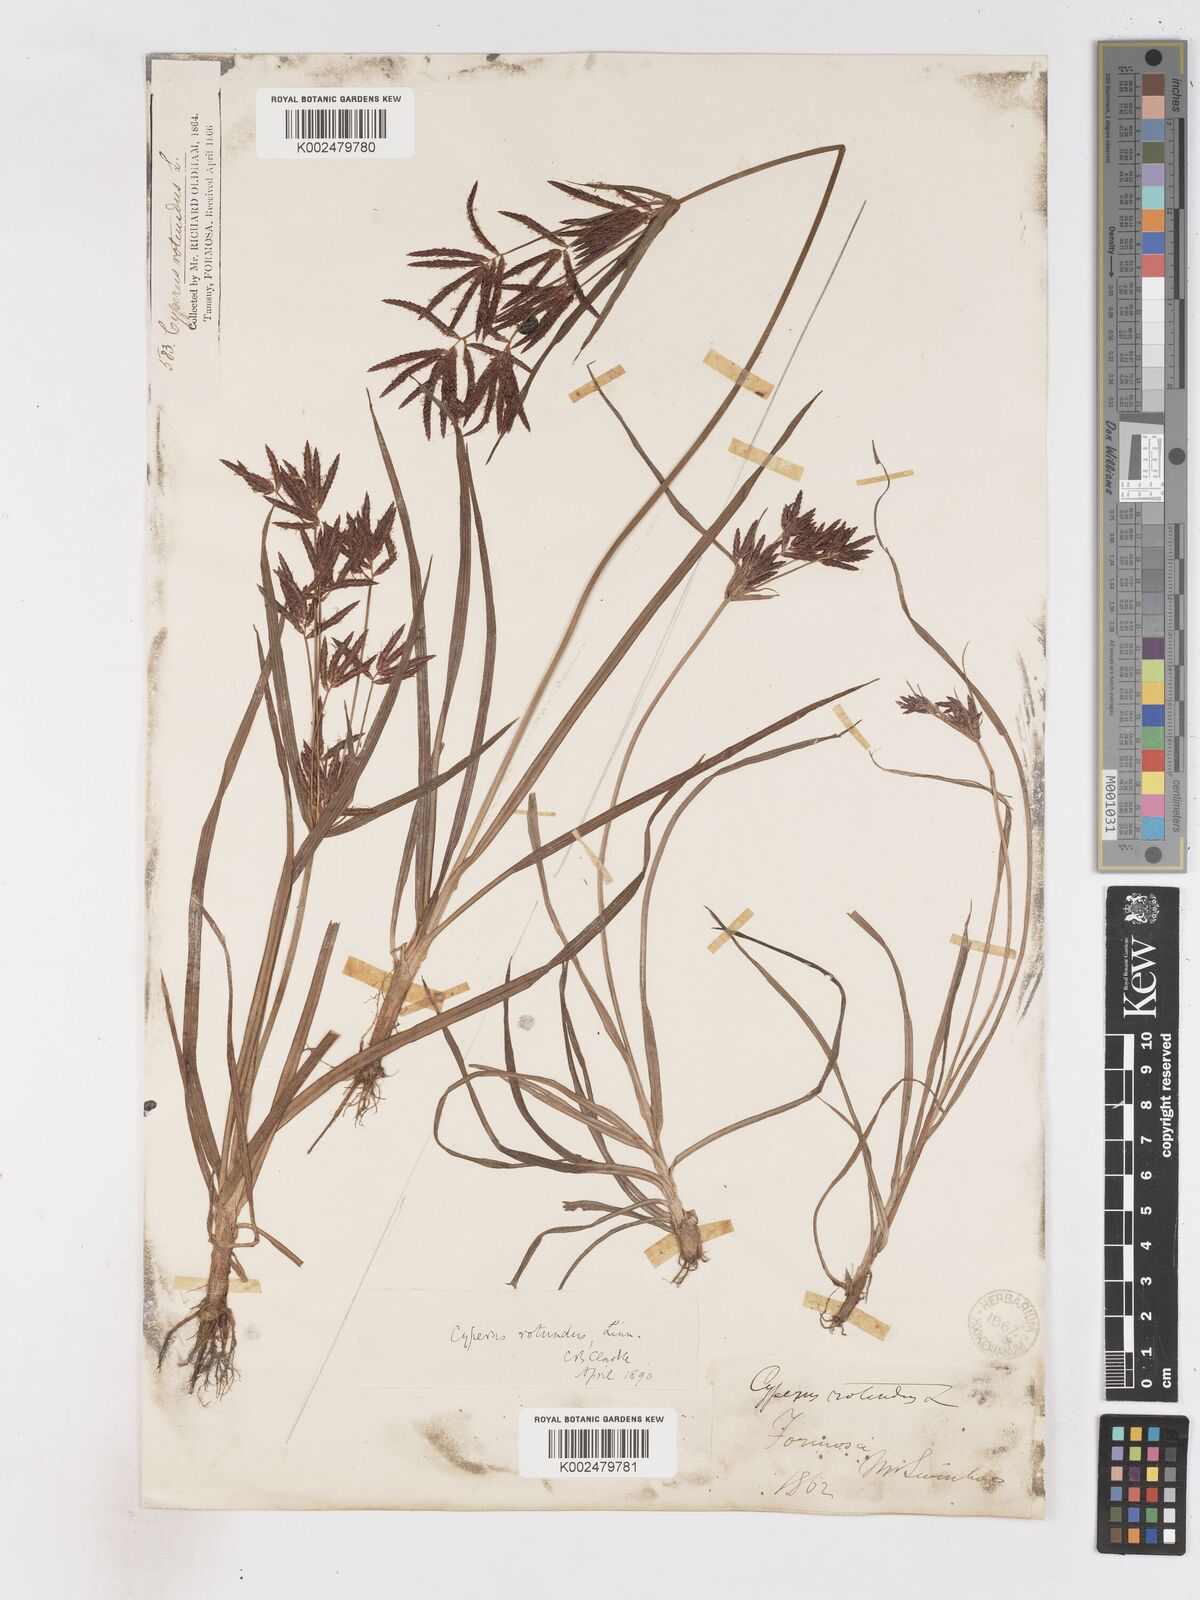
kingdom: Plantae
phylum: Tracheophyta
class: Liliopsida
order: Poales
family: Cyperaceae
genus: Cyperus
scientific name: Cyperus rotundus
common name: Nutgrass
